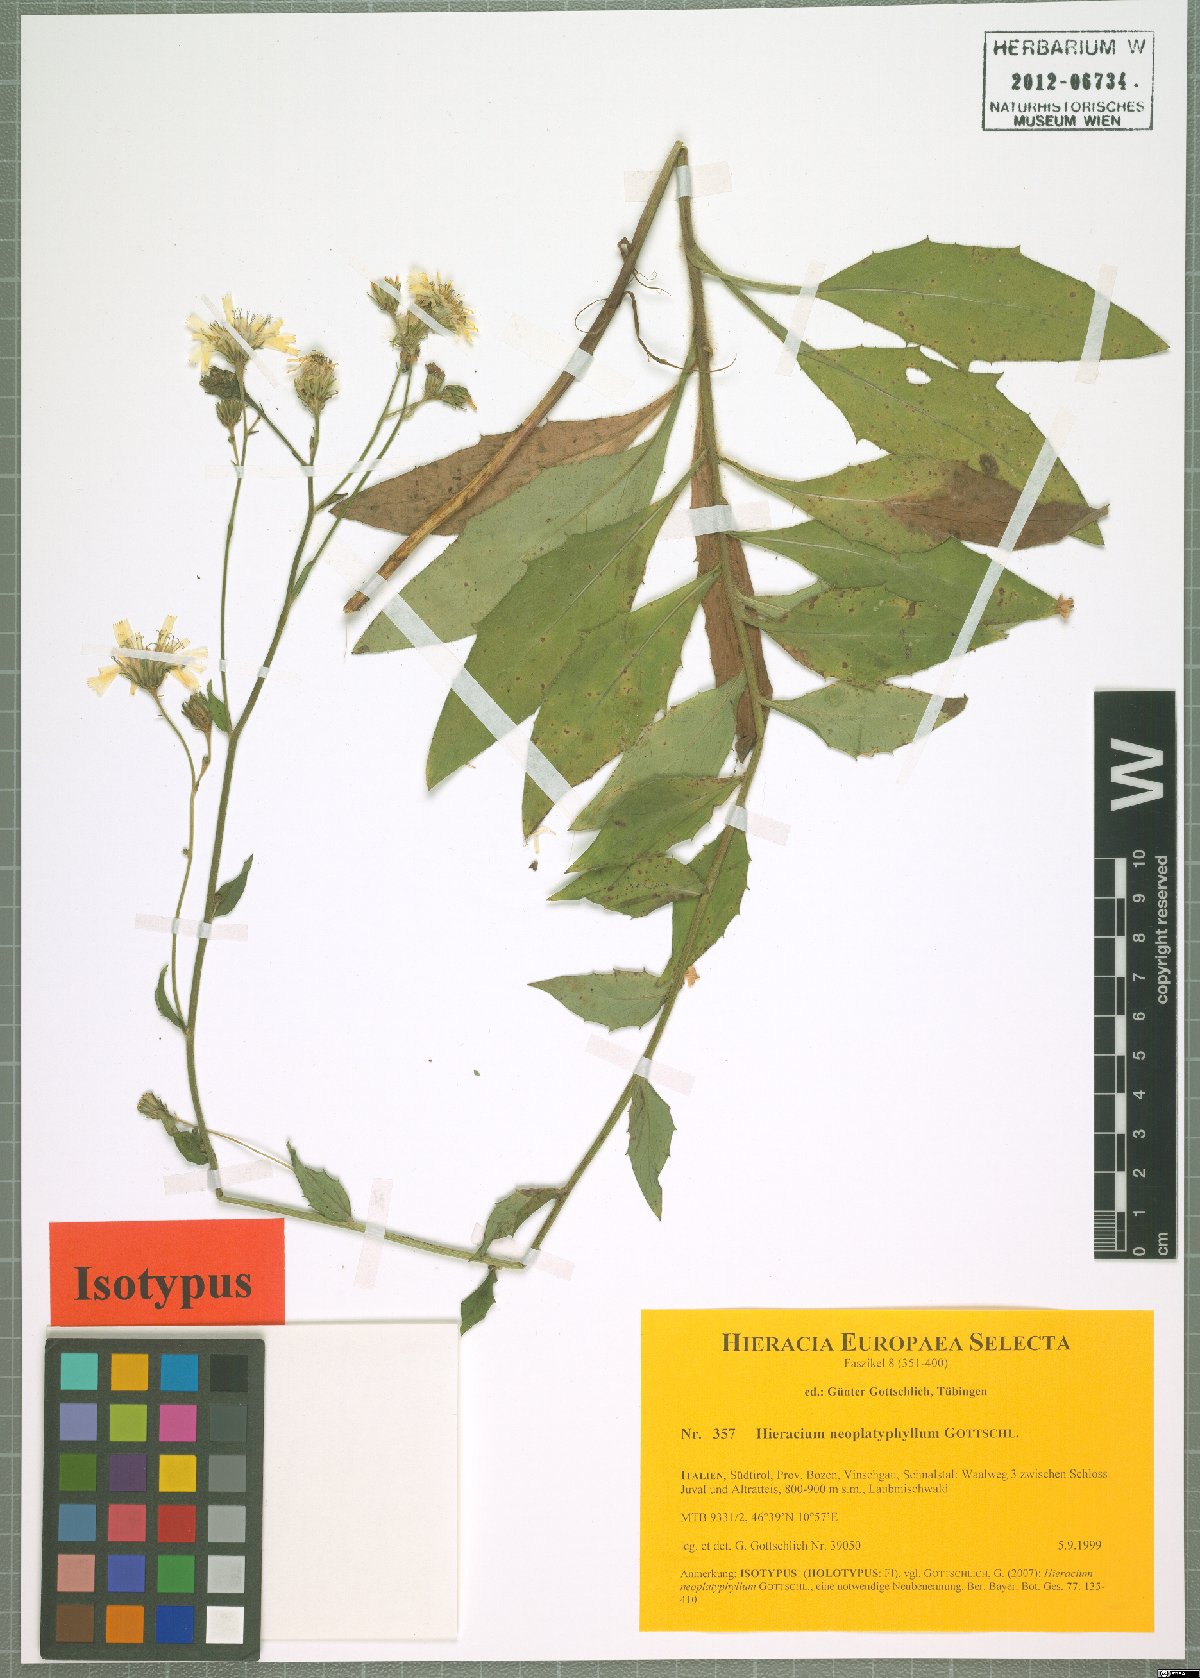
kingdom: Plantae
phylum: Tracheophyta
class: Magnoliopsida
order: Asterales
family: Asteraceae
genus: Hieracium
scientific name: Hieracium neoplatyphyllum
